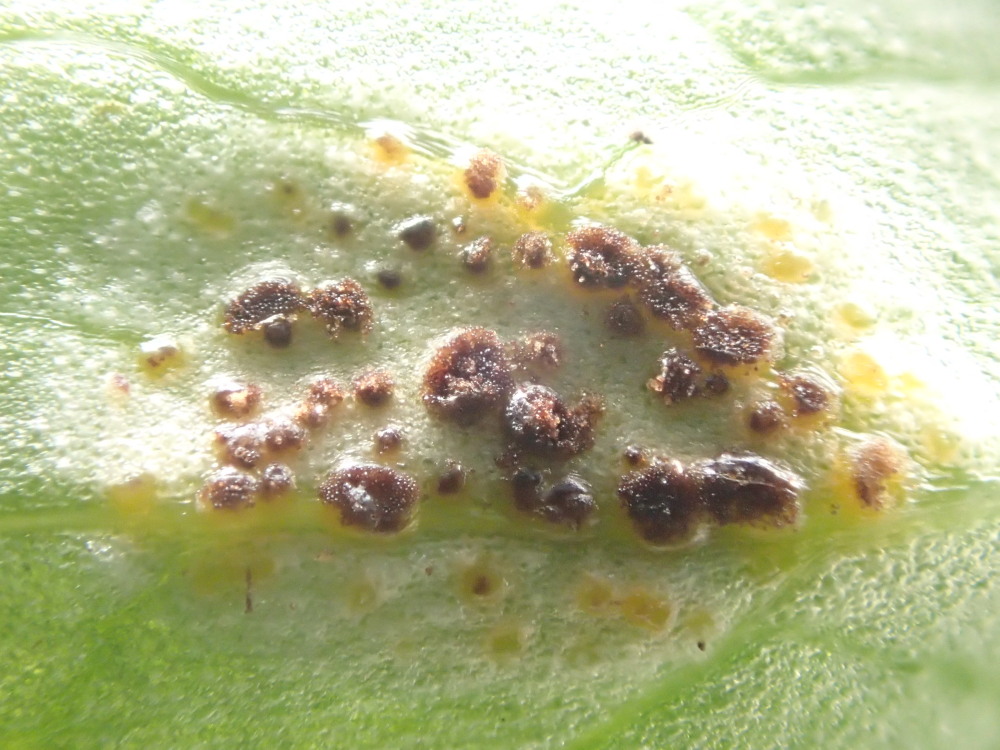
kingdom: Fungi
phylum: Basidiomycota
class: Pucciniomycetes
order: Pucciniales
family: Pucciniaceae
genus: Uromyces
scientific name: Uromyces ficariae
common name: vorterod-encellerust
